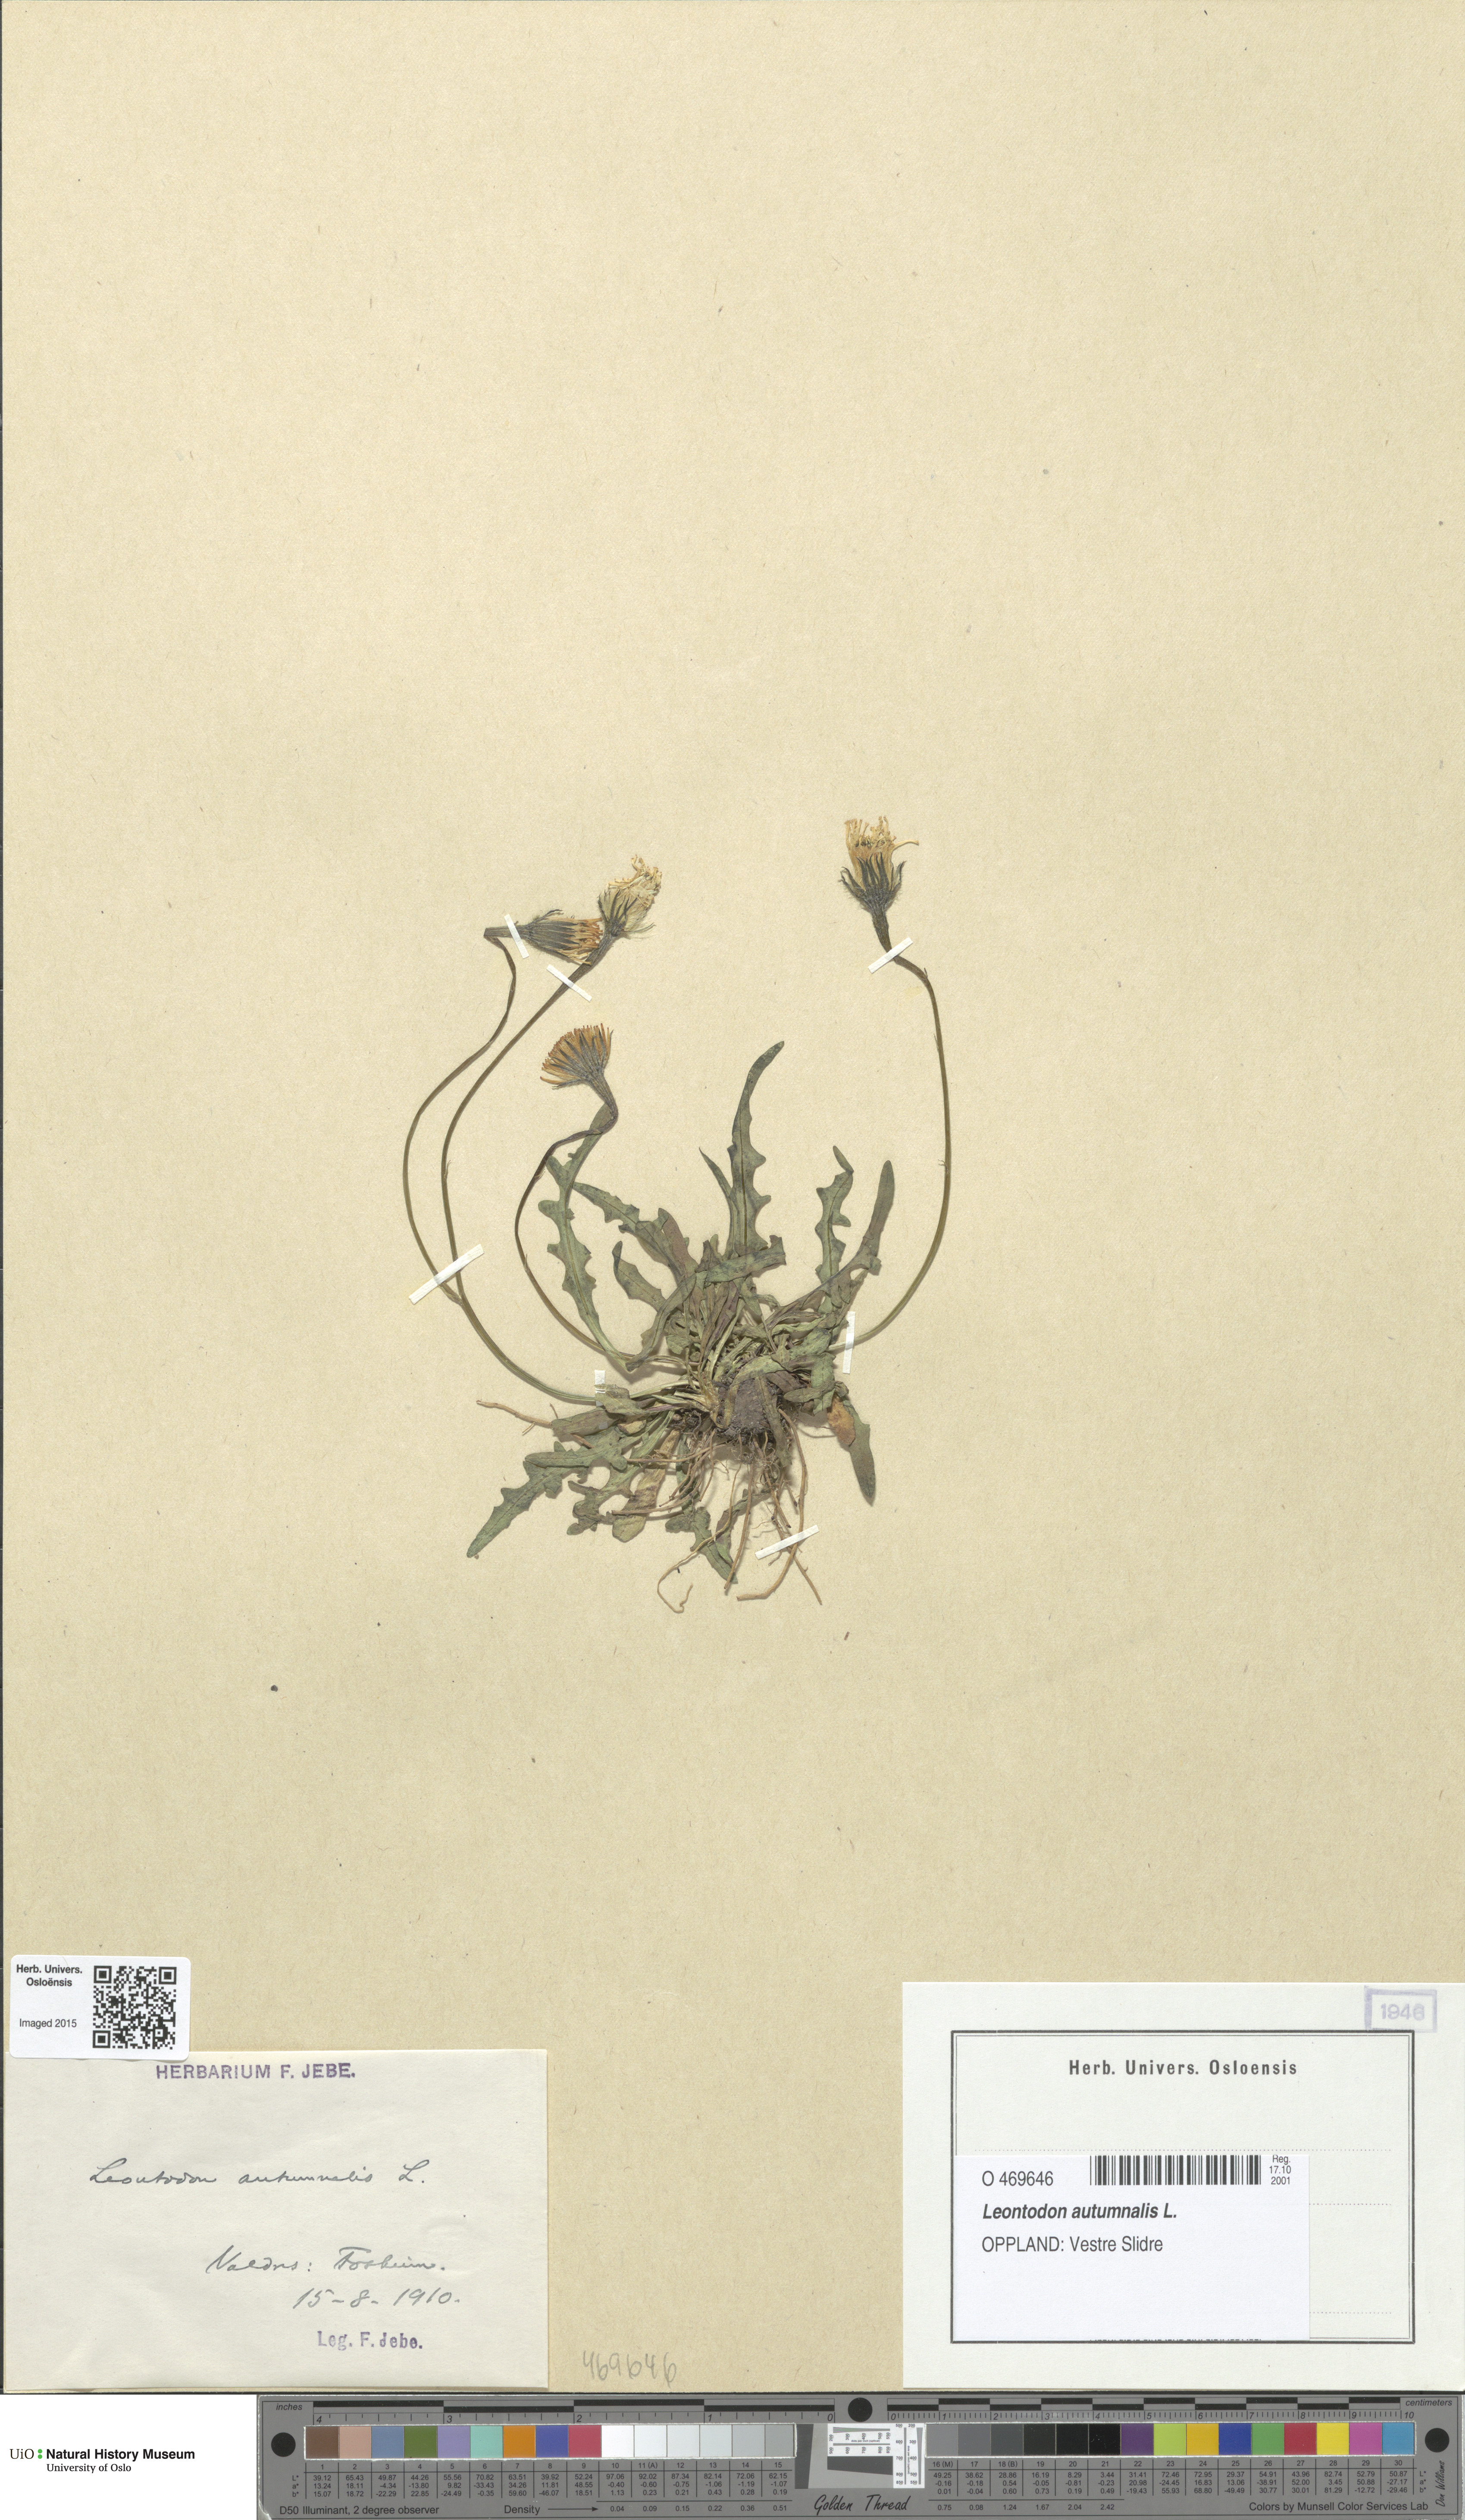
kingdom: Plantae
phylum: Tracheophyta
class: Magnoliopsida
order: Asterales
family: Asteraceae
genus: Scorzoneroides
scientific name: Scorzoneroides autumnalis
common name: Autumn hawkbit
